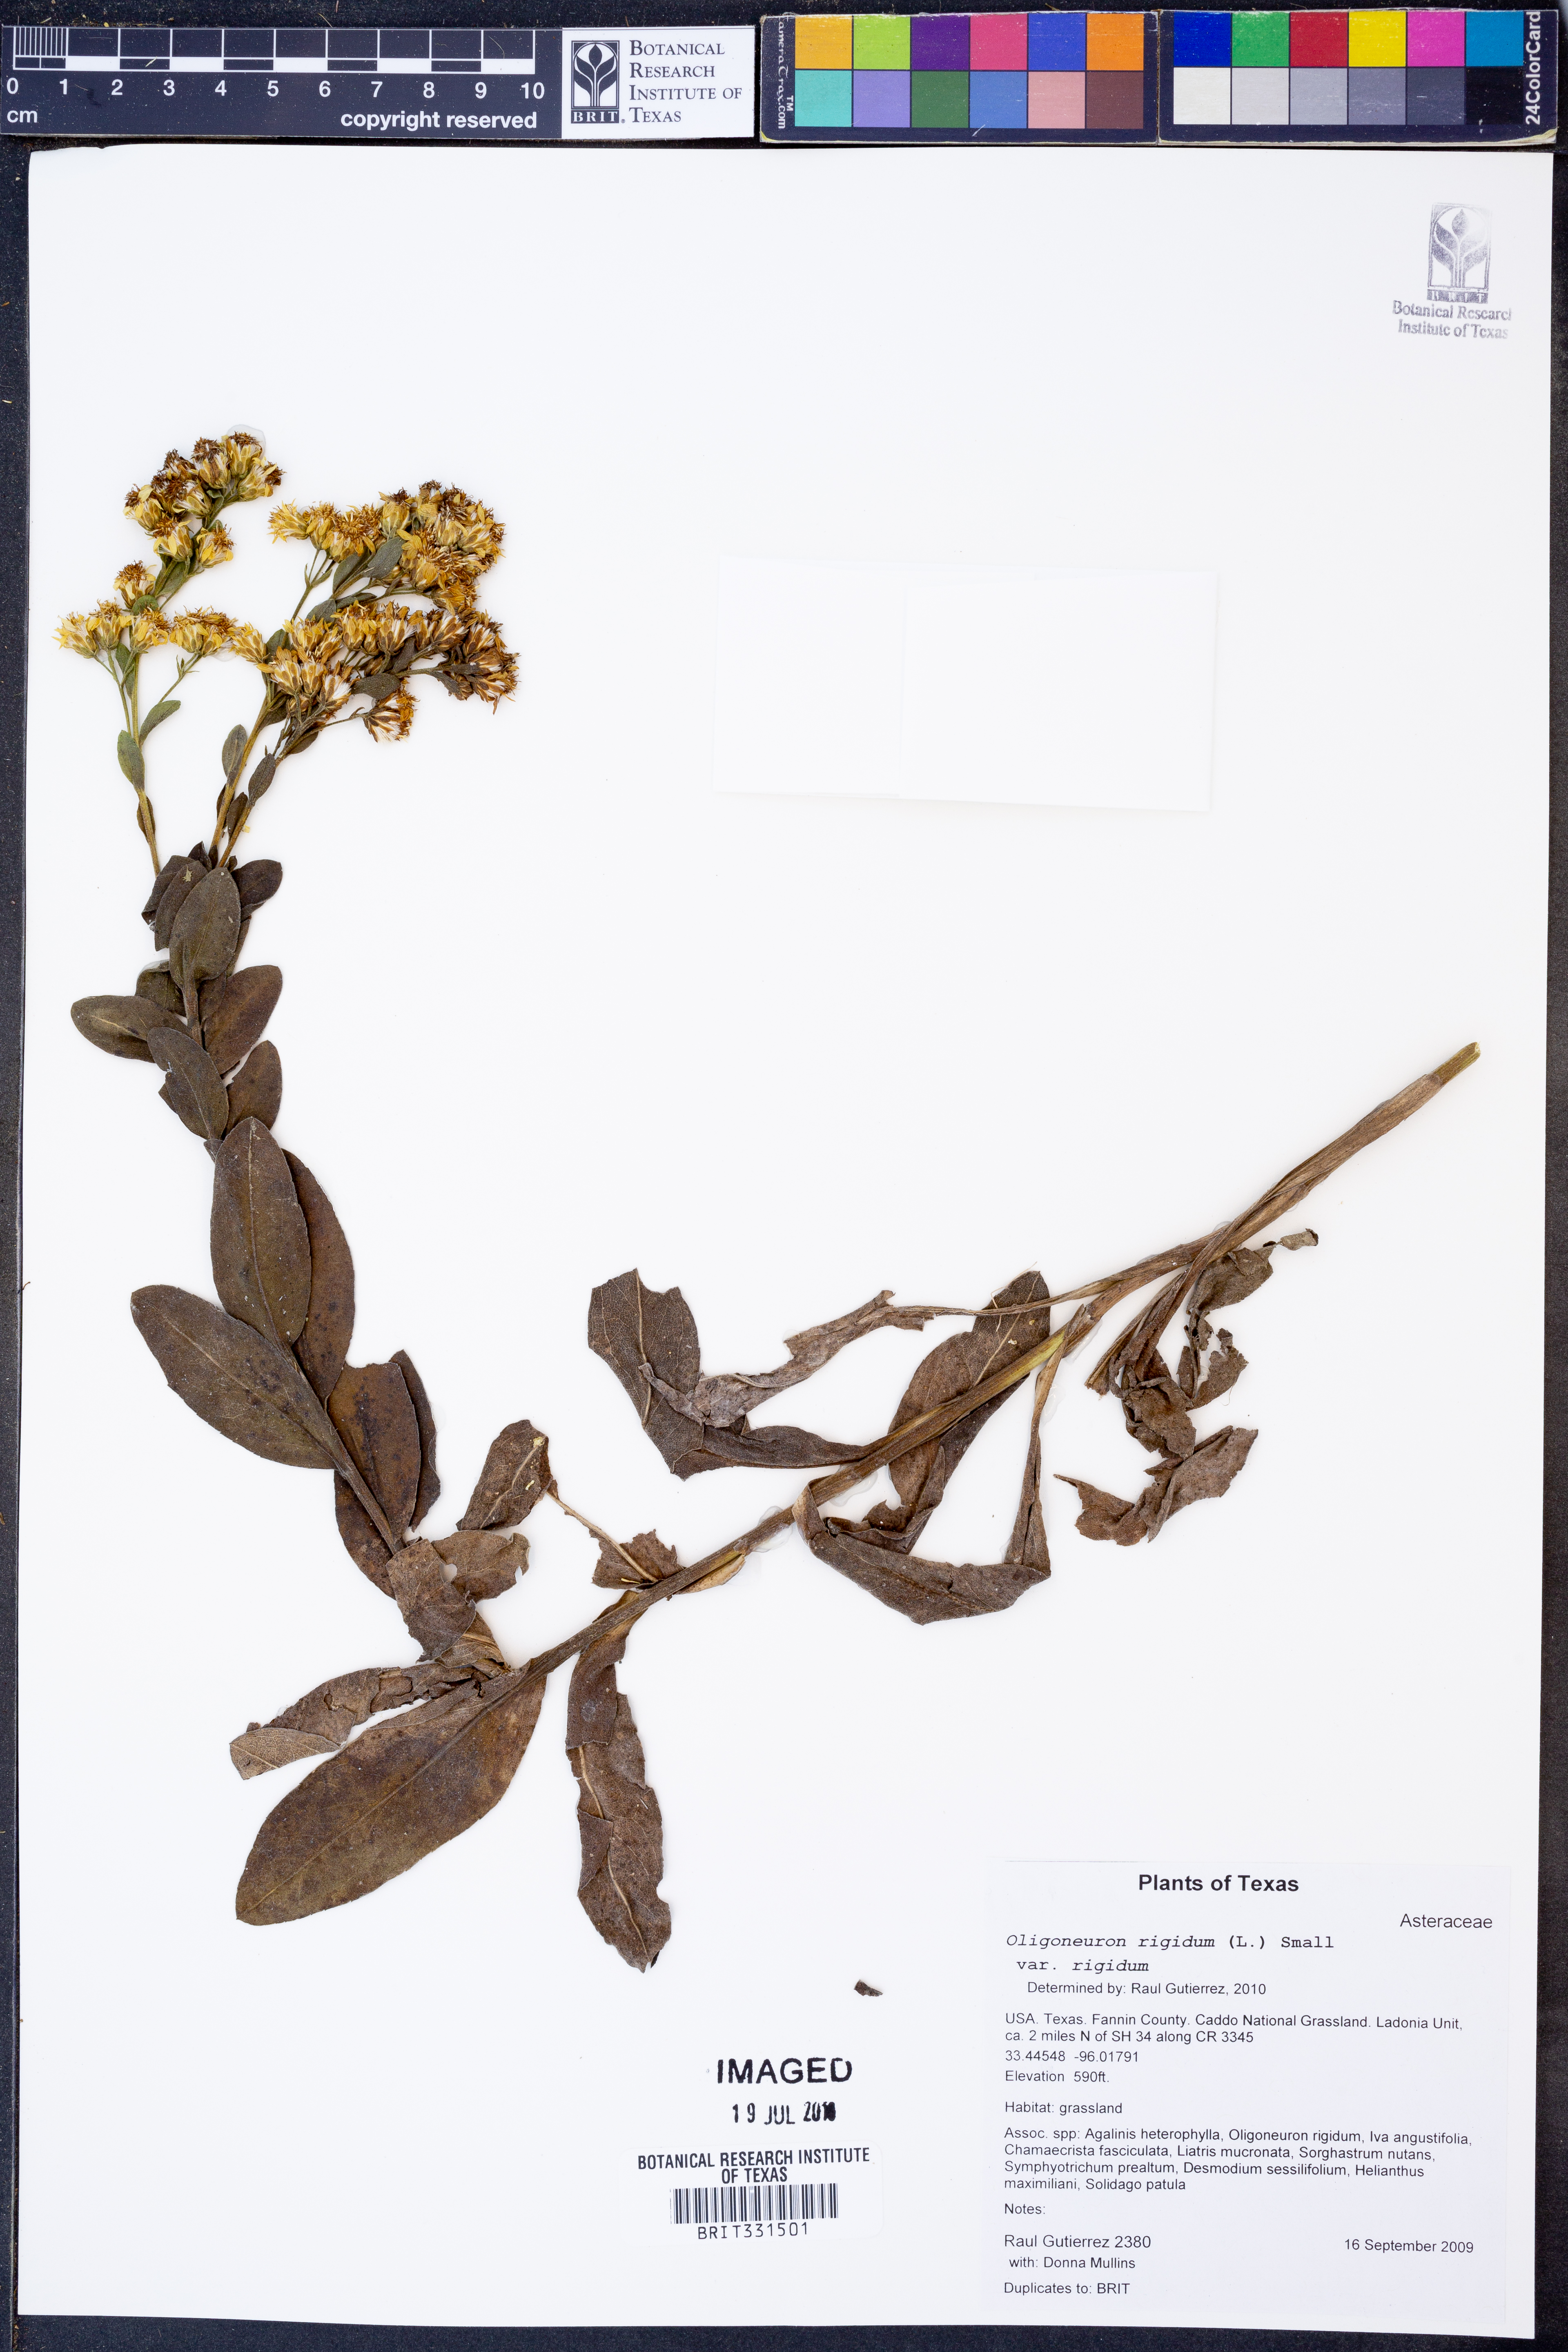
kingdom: Plantae
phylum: Tracheophyta
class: Magnoliopsida
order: Asterales
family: Asteraceae
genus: Solidago
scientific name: Solidago rigida
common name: Rigid goldenrod
